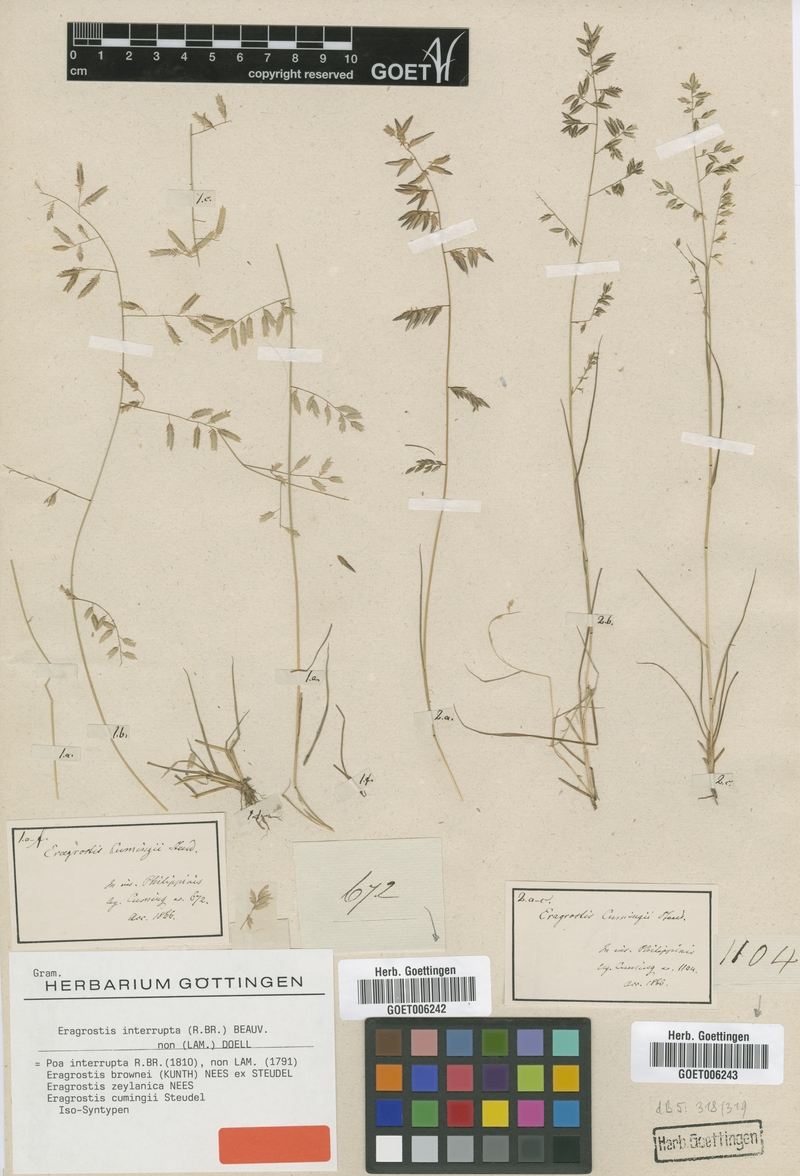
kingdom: Plantae
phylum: Tracheophyta
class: Liliopsida
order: Poales
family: Poaceae
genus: Eragrostis
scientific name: Eragrostis interrupta
